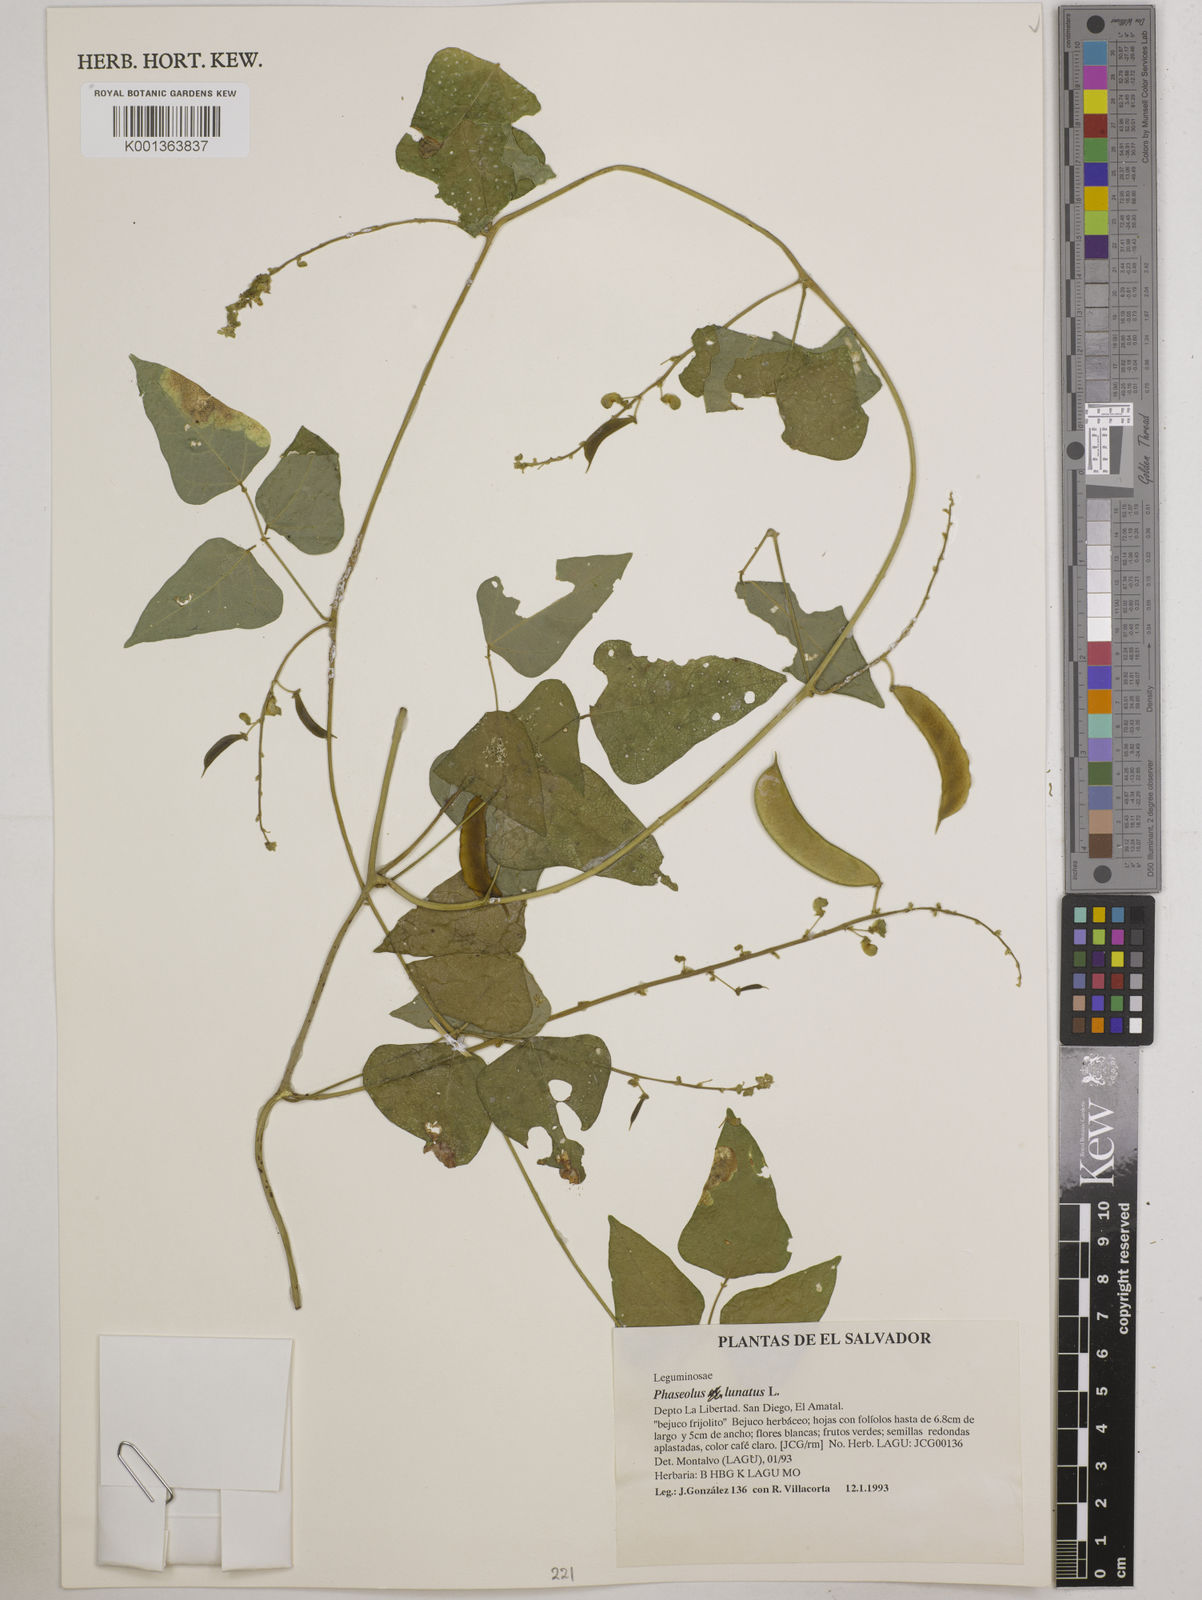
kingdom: Plantae
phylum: Tracheophyta
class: Magnoliopsida
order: Fabales
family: Fabaceae
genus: Phaseolus
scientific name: Phaseolus lunatus
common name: Sieva bean
